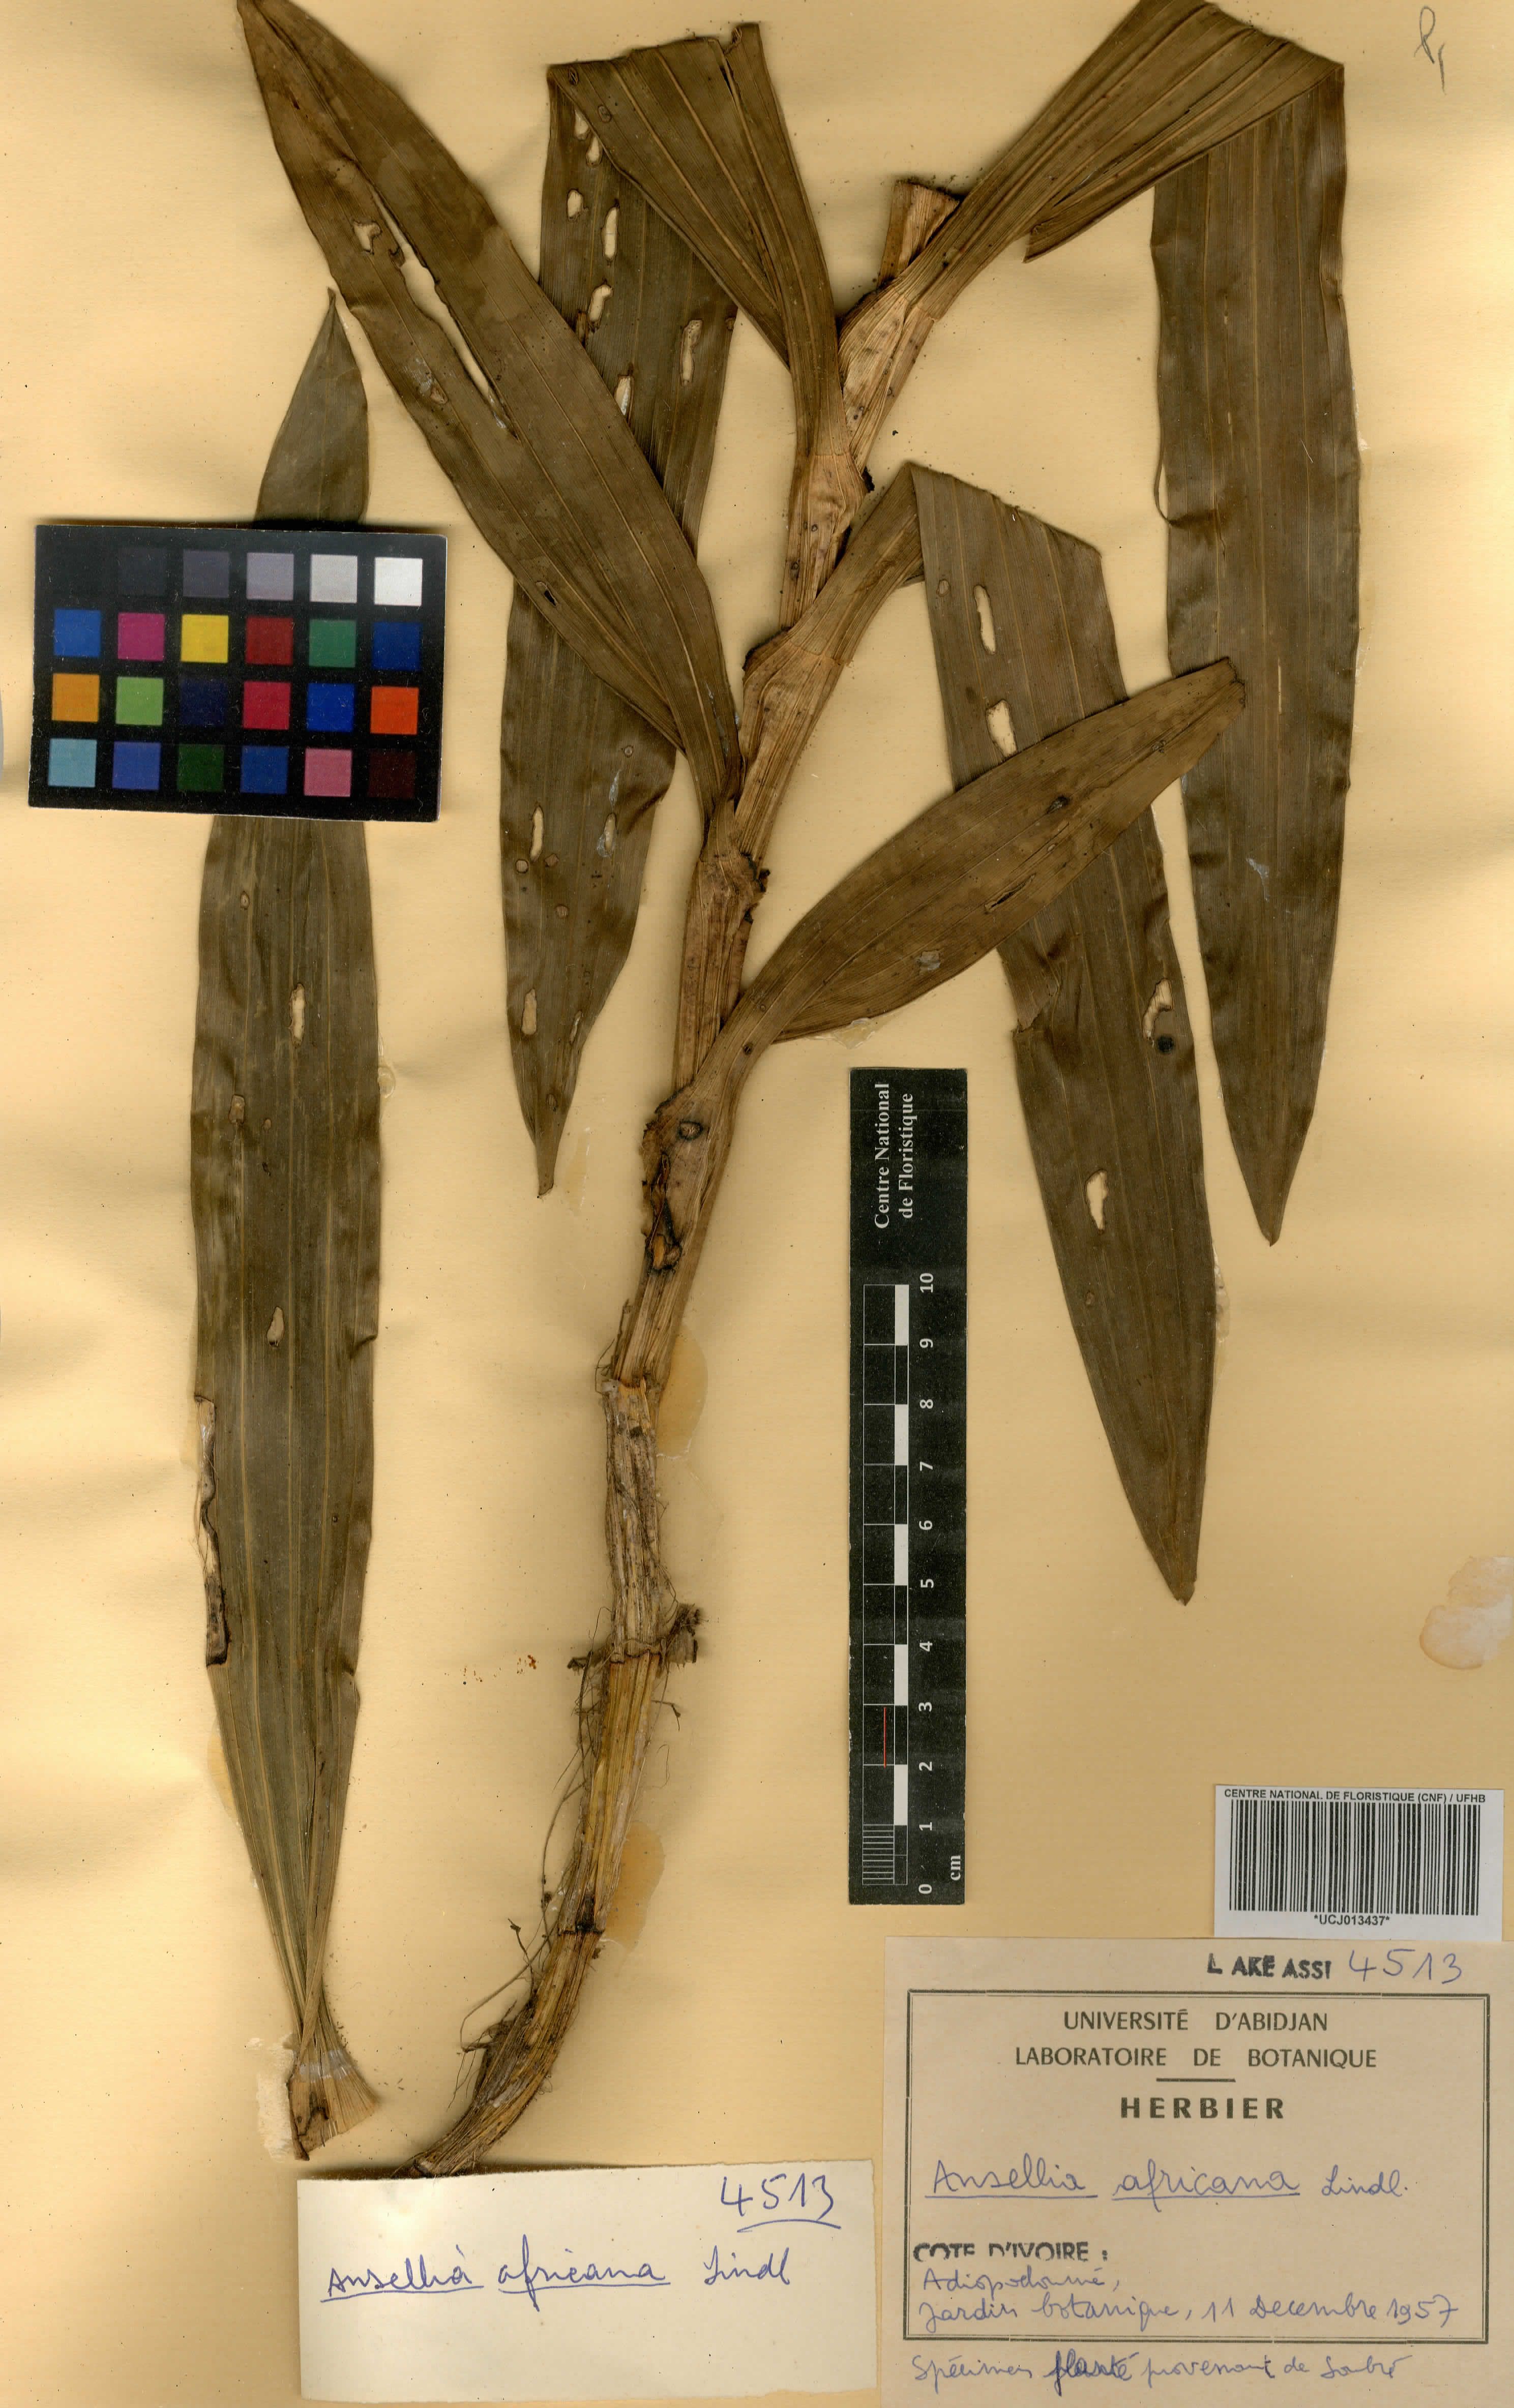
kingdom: Plantae
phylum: Tracheophyta
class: Liliopsida
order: Asparagales
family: Orchidaceae
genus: Ansellia
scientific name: Ansellia africana
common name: African ansellia
